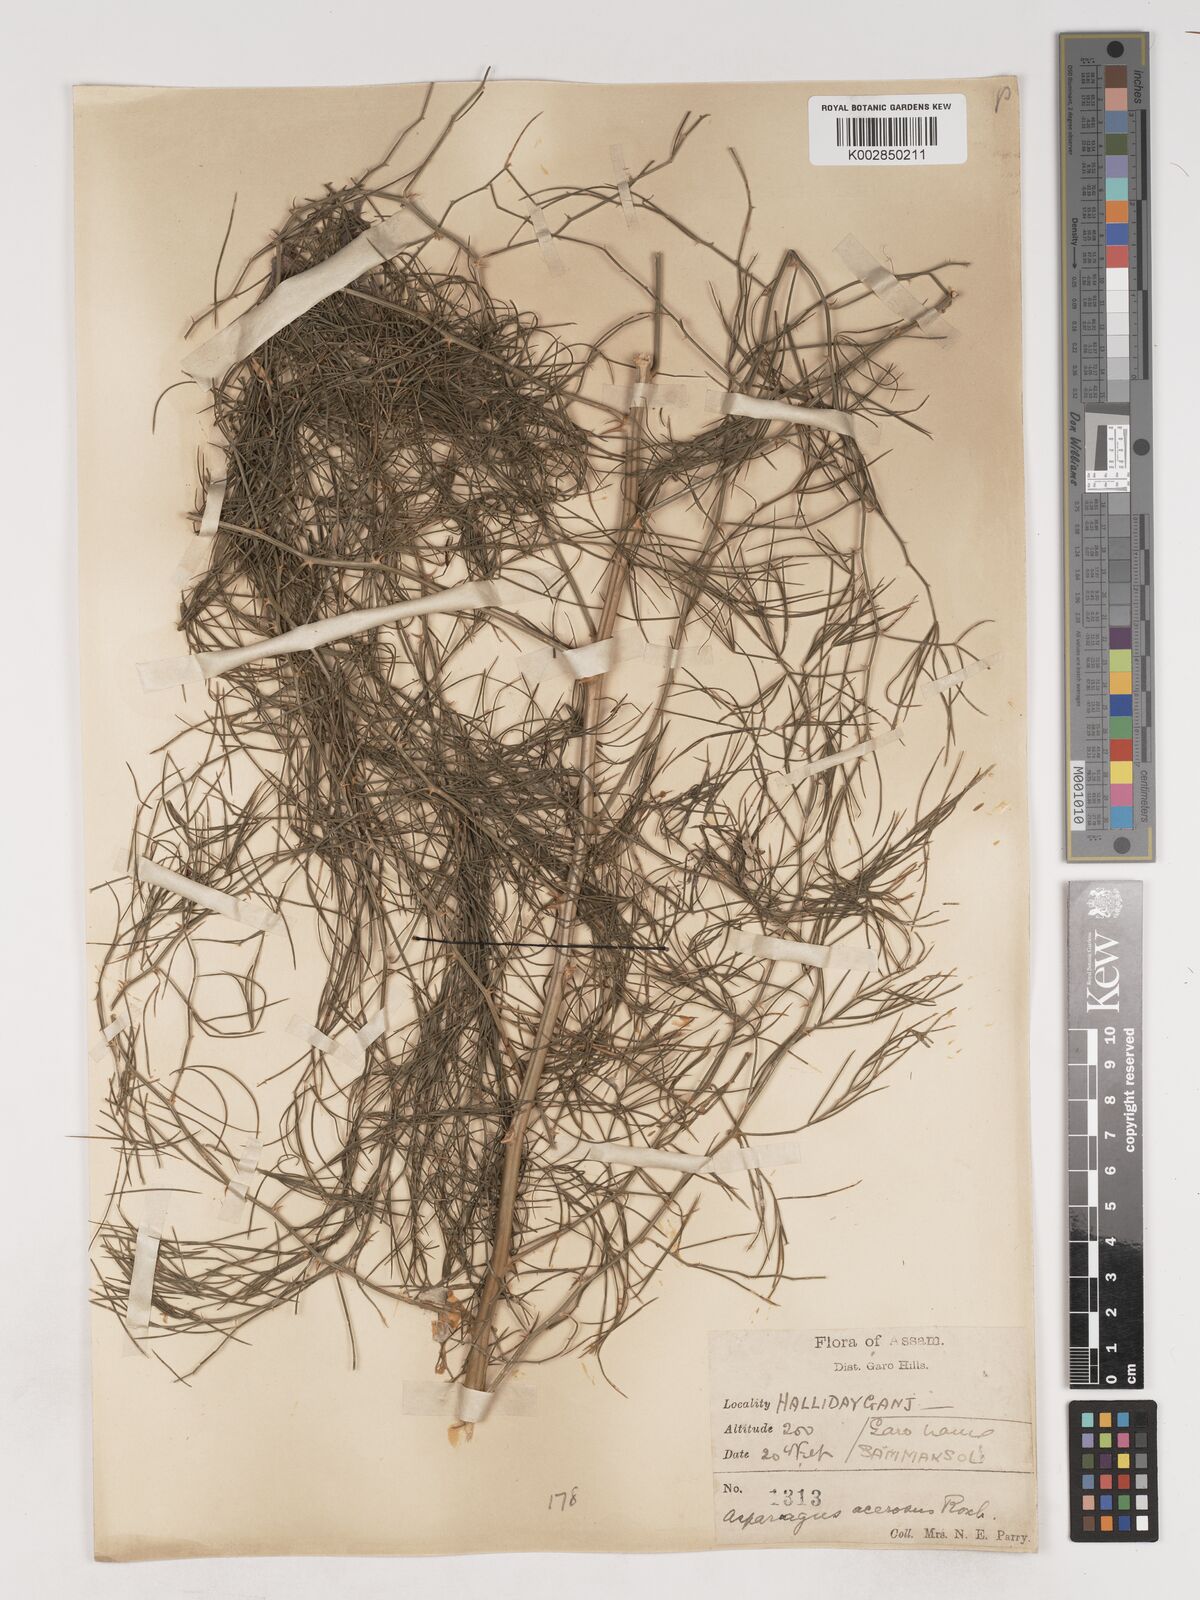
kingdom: Plantae
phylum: Tracheophyta
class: Liliopsida
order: Asparagales
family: Asparagaceae
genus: Asparagus
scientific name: Asparagus adscendens
